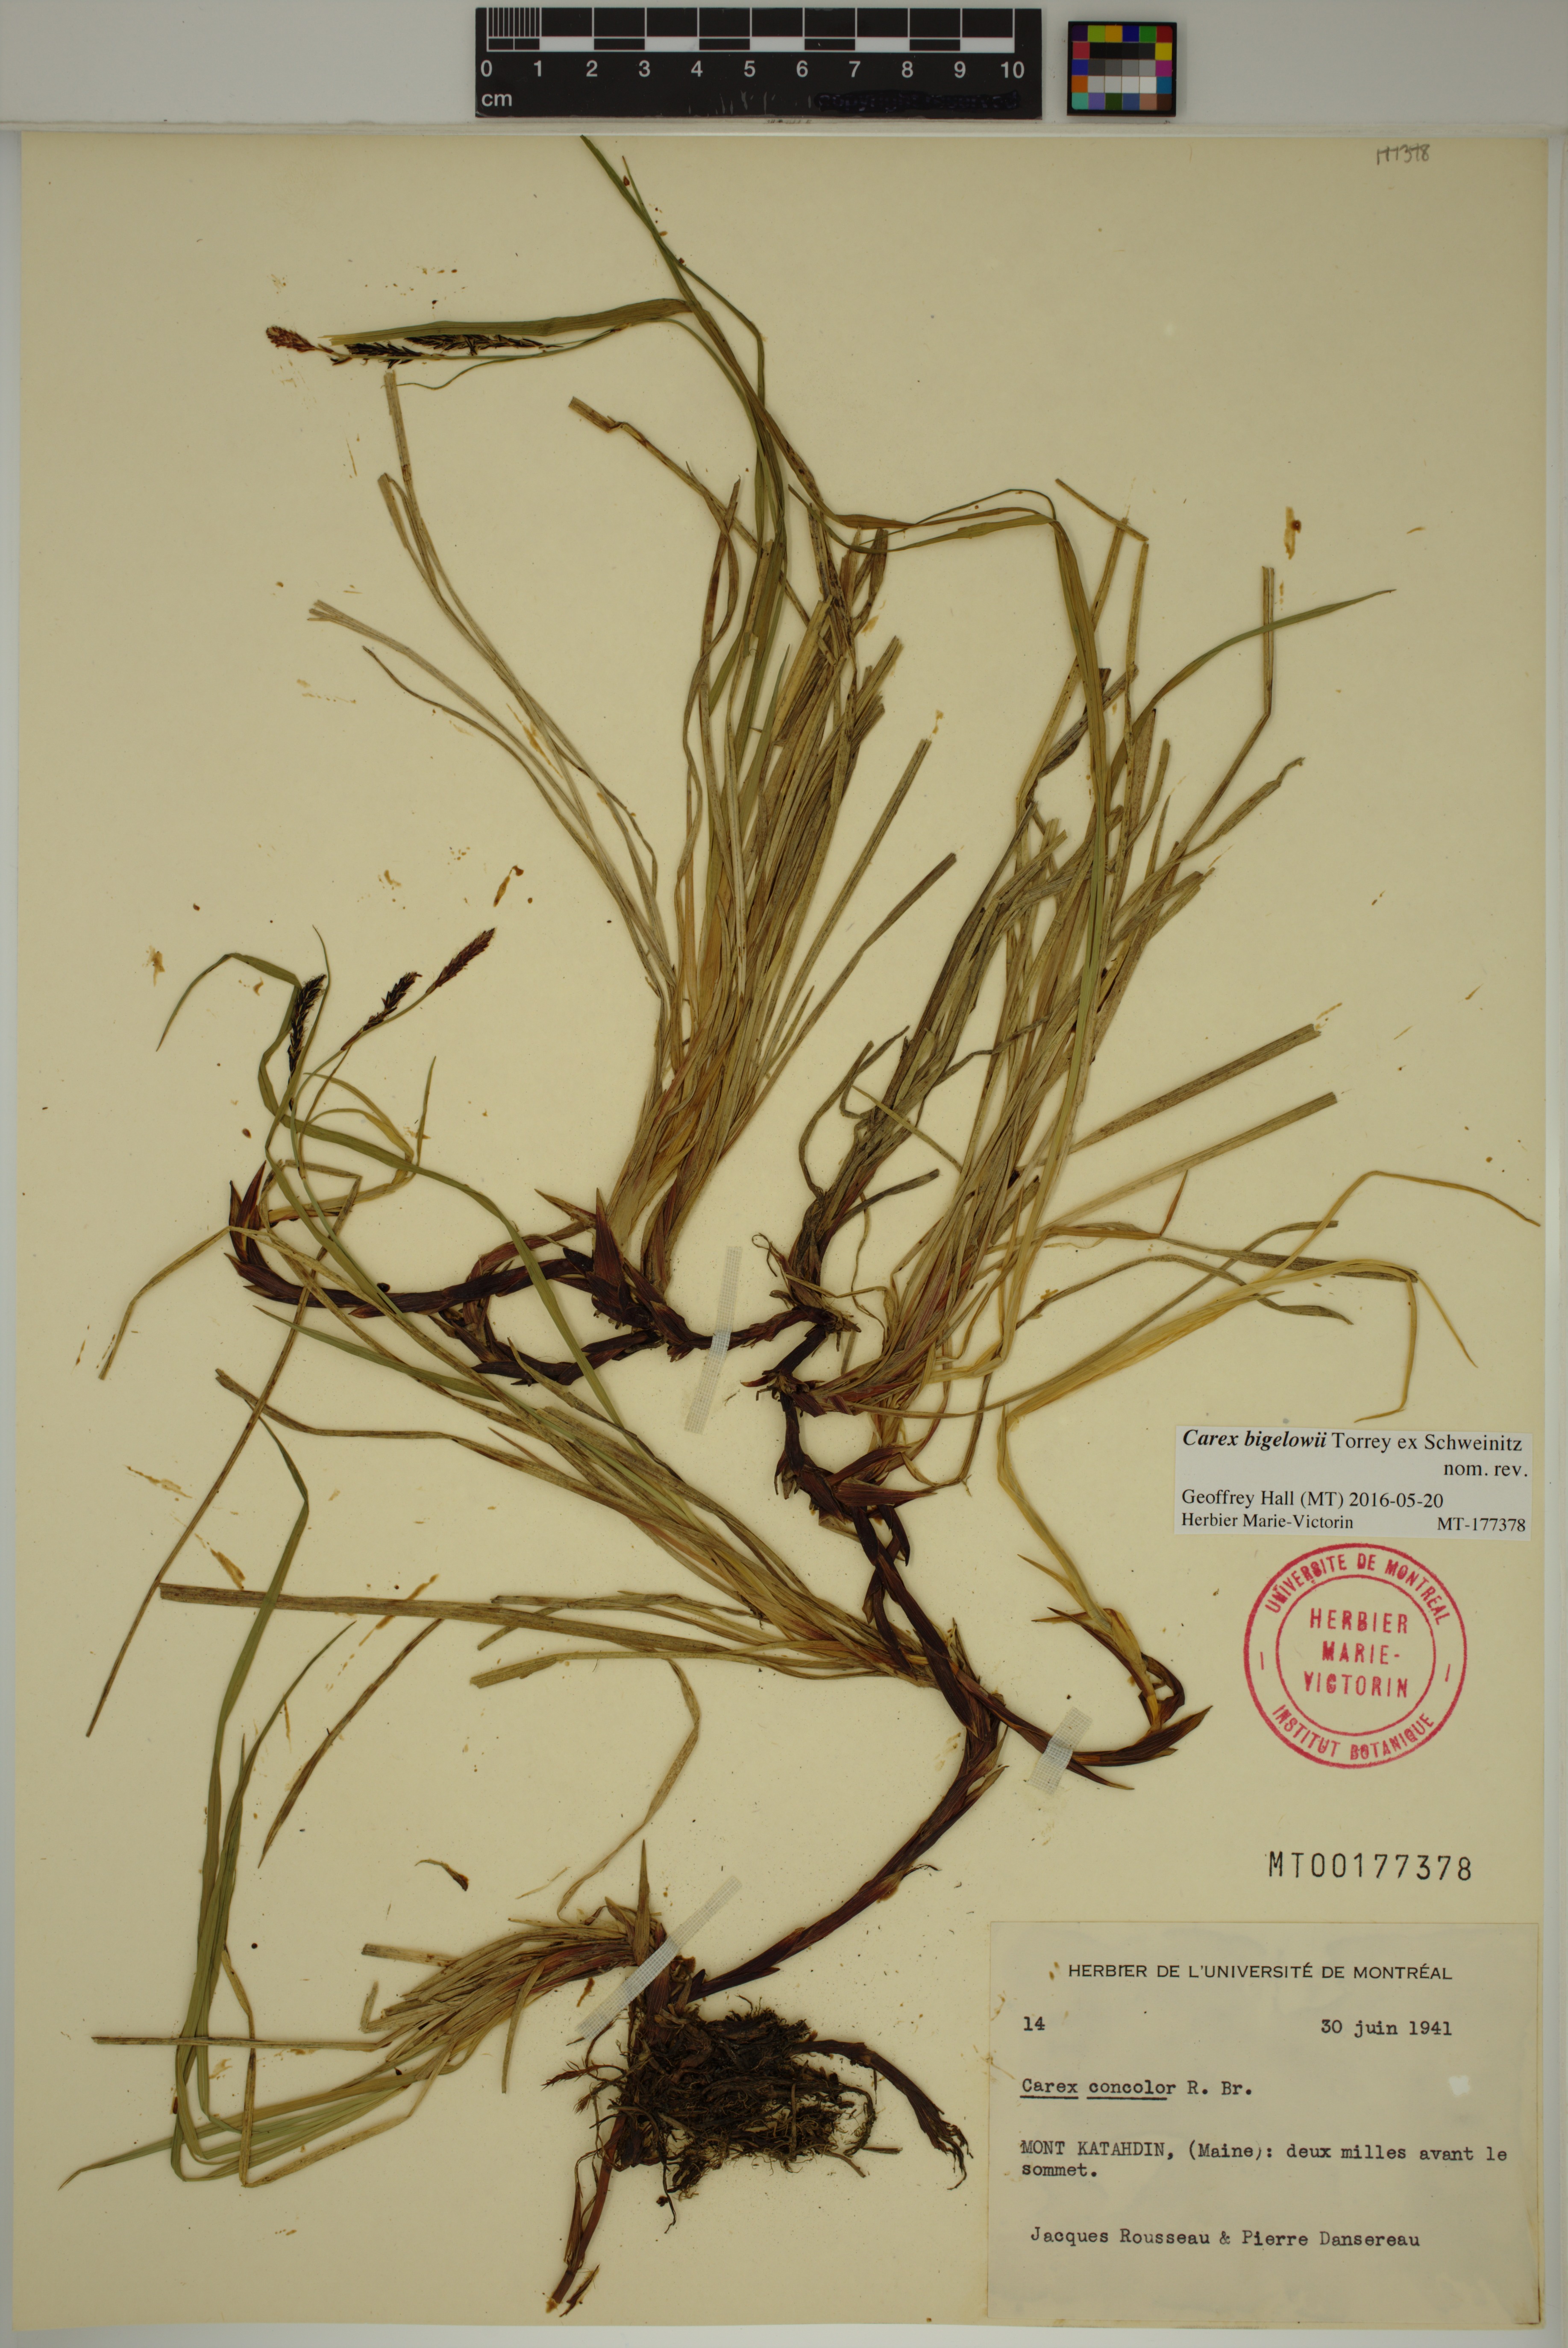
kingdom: Plantae
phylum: Tracheophyta
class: Liliopsida
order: Poales
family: Cyperaceae
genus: Carex
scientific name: Carex bigelowii
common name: Stiff sedge
